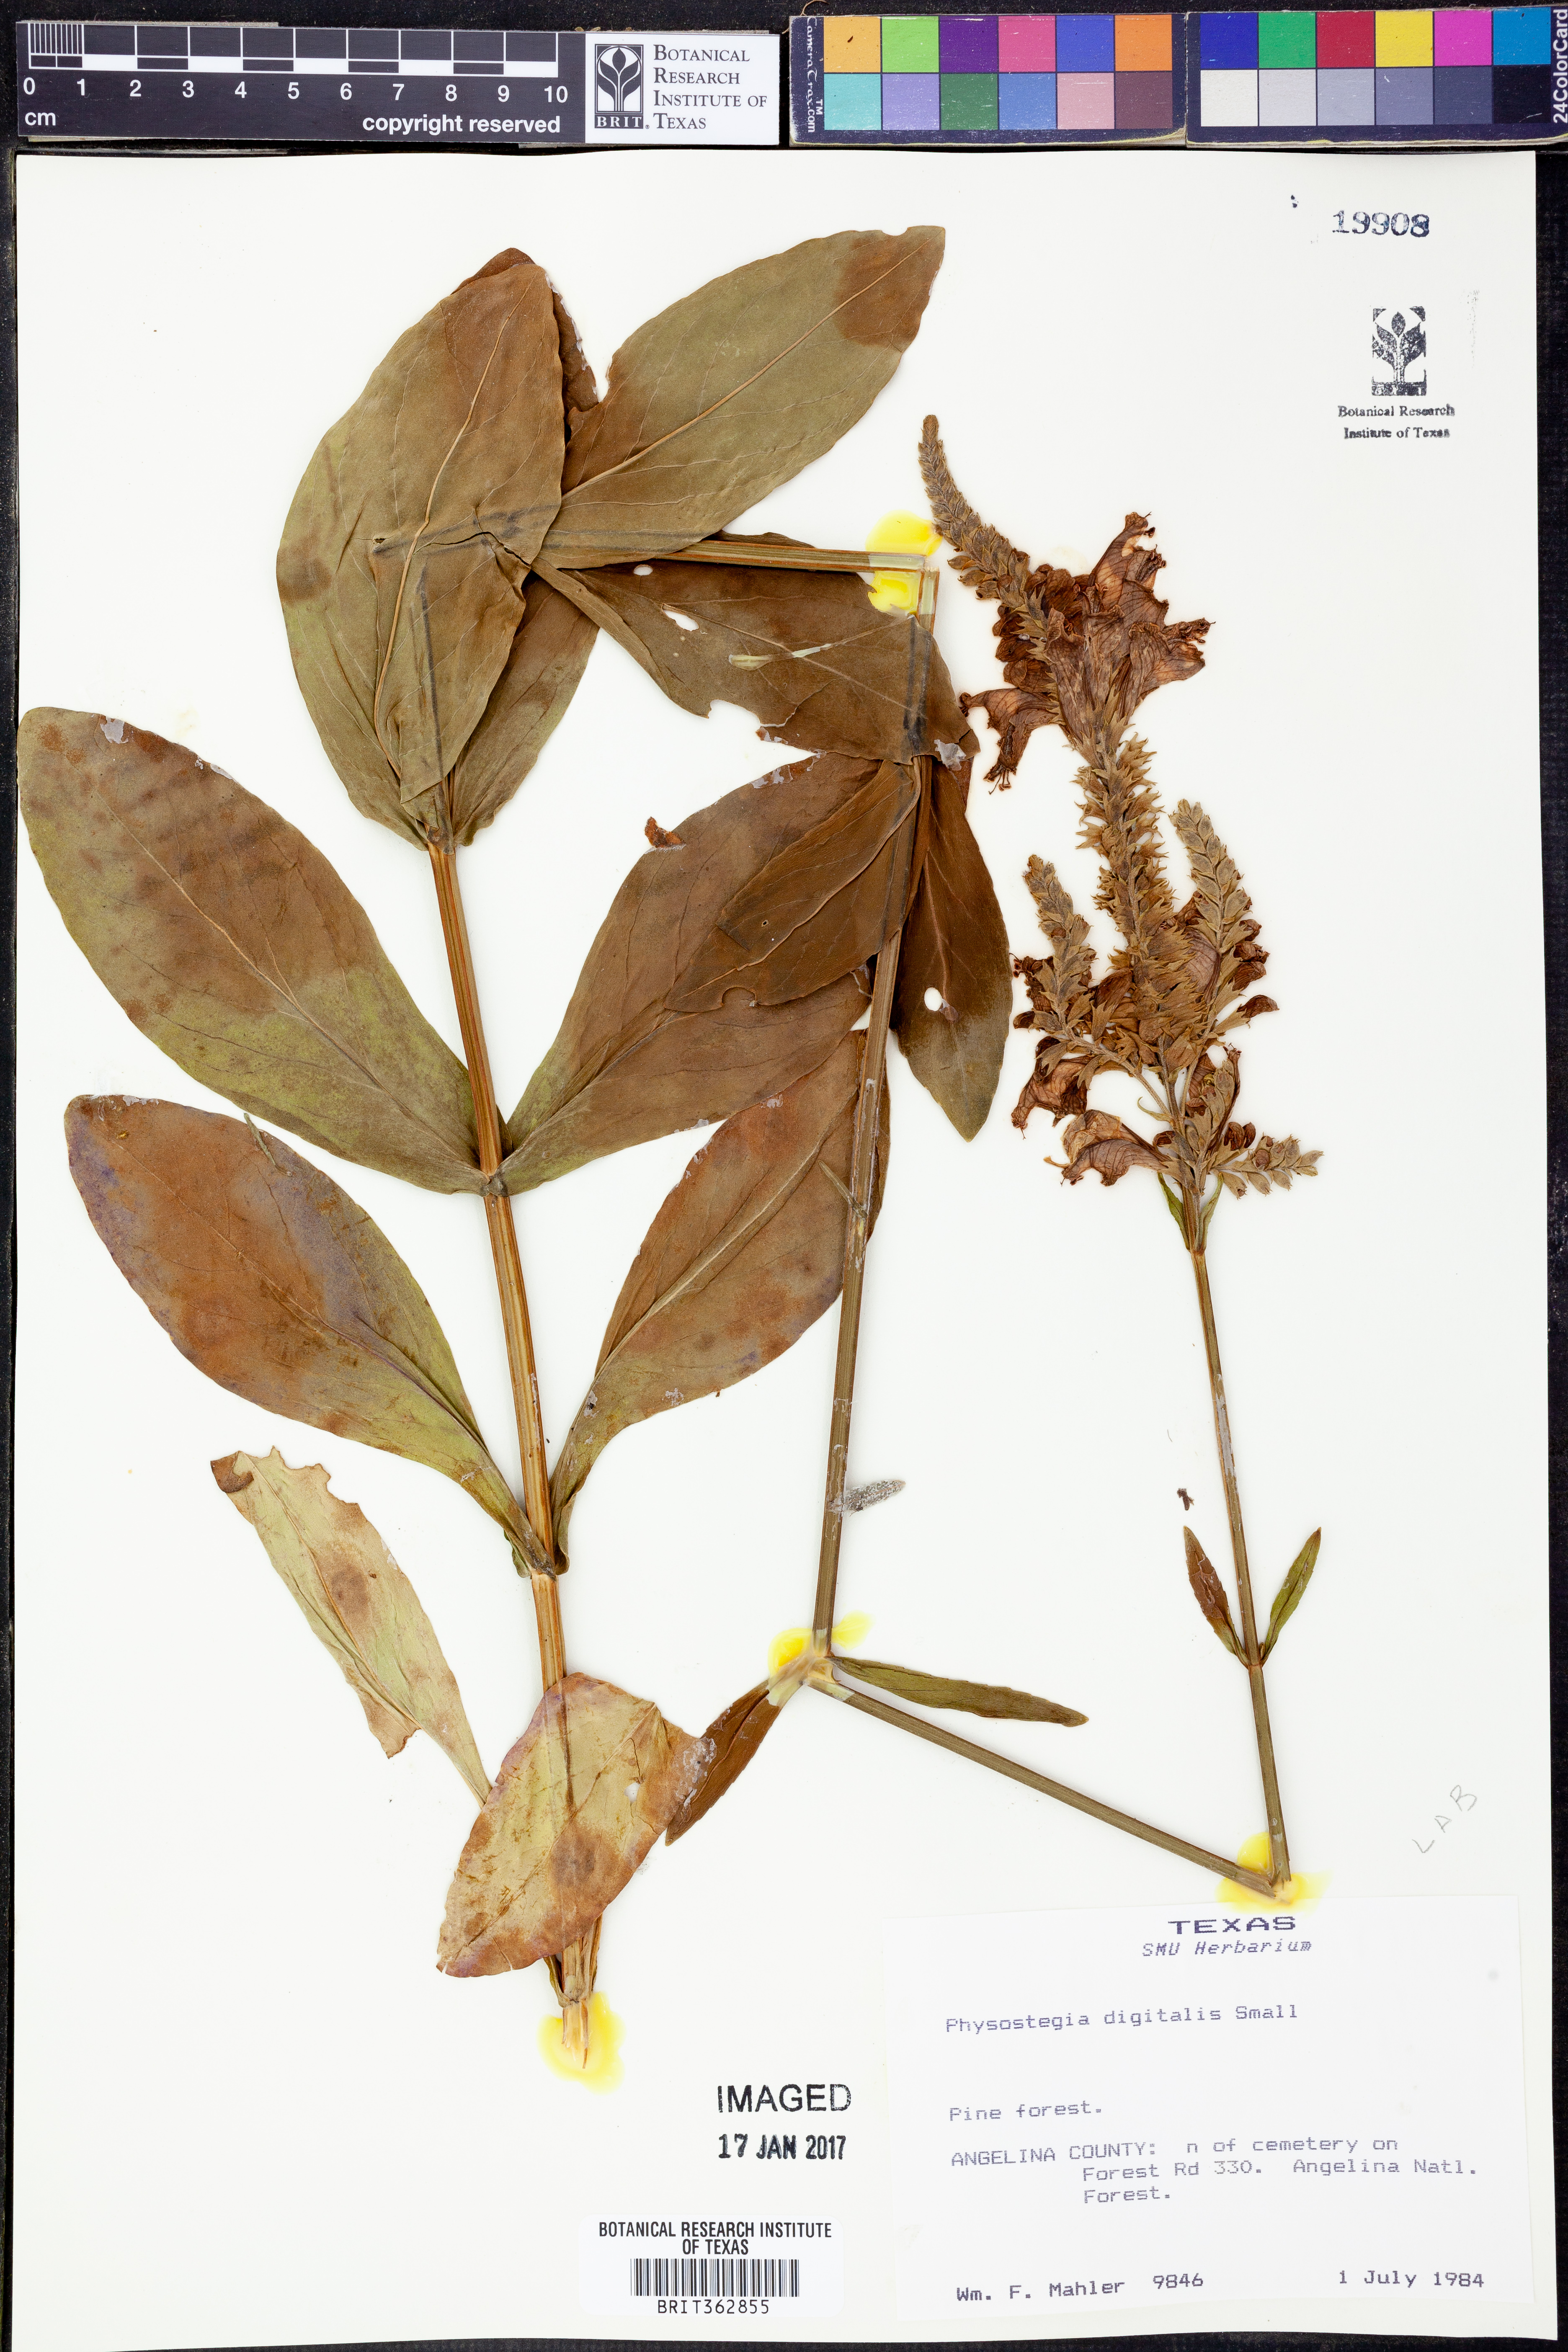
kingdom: Plantae
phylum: Tracheophyta
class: Magnoliopsida
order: Lamiales
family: Lamiaceae
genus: Physostegia
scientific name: Physostegia digitalis
